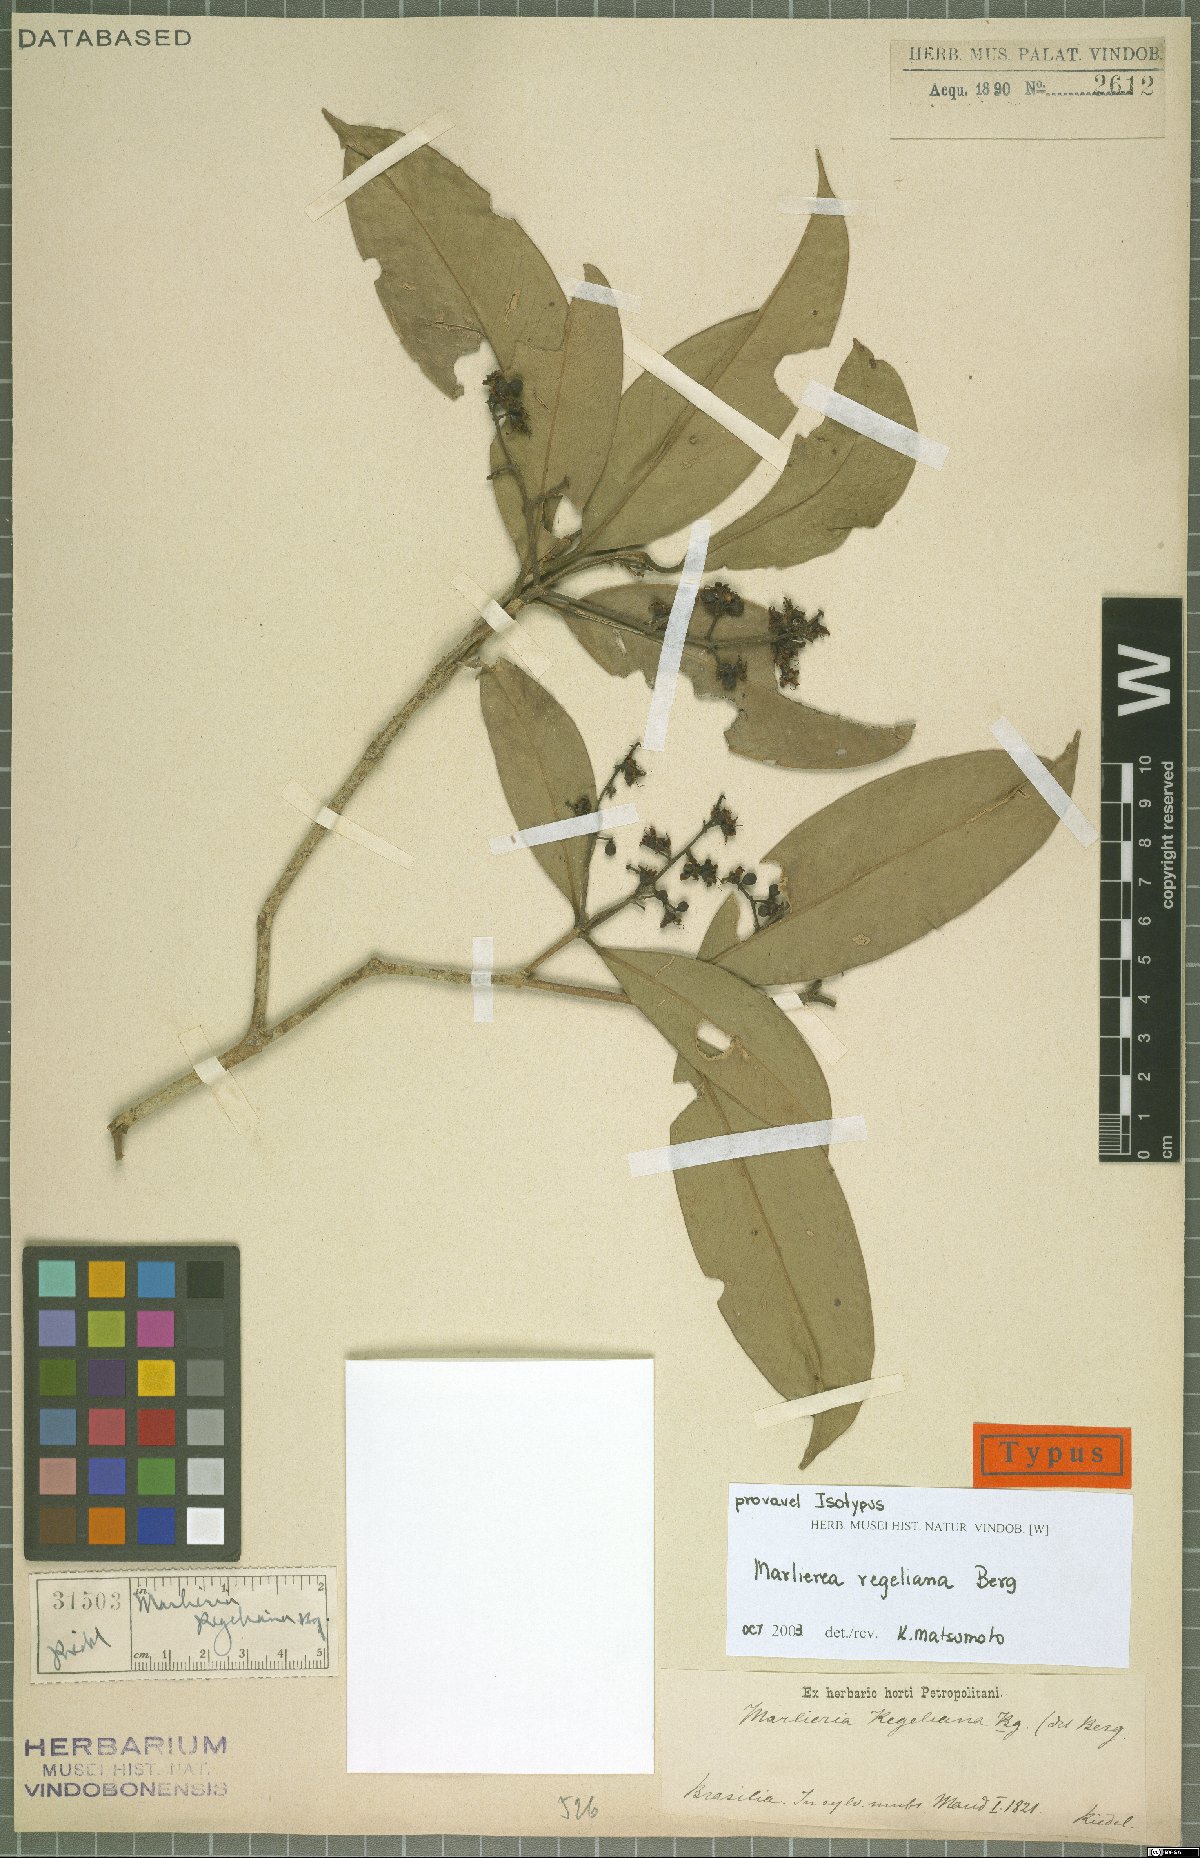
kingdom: Plantae
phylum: Tracheophyta
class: Magnoliopsida
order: Myrtales
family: Myrtaceae
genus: Myrcia
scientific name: Myrcia neoregeliana
